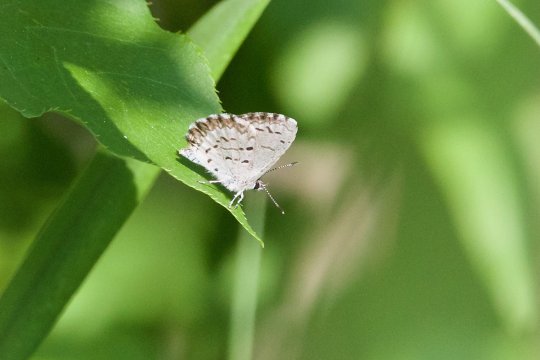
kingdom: Animalia
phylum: Arthropoda
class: Insecta
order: Lepidoptera
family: Lycaenidae
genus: Celastrina
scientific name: Celastrina lucia
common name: Northern Spring Azure
